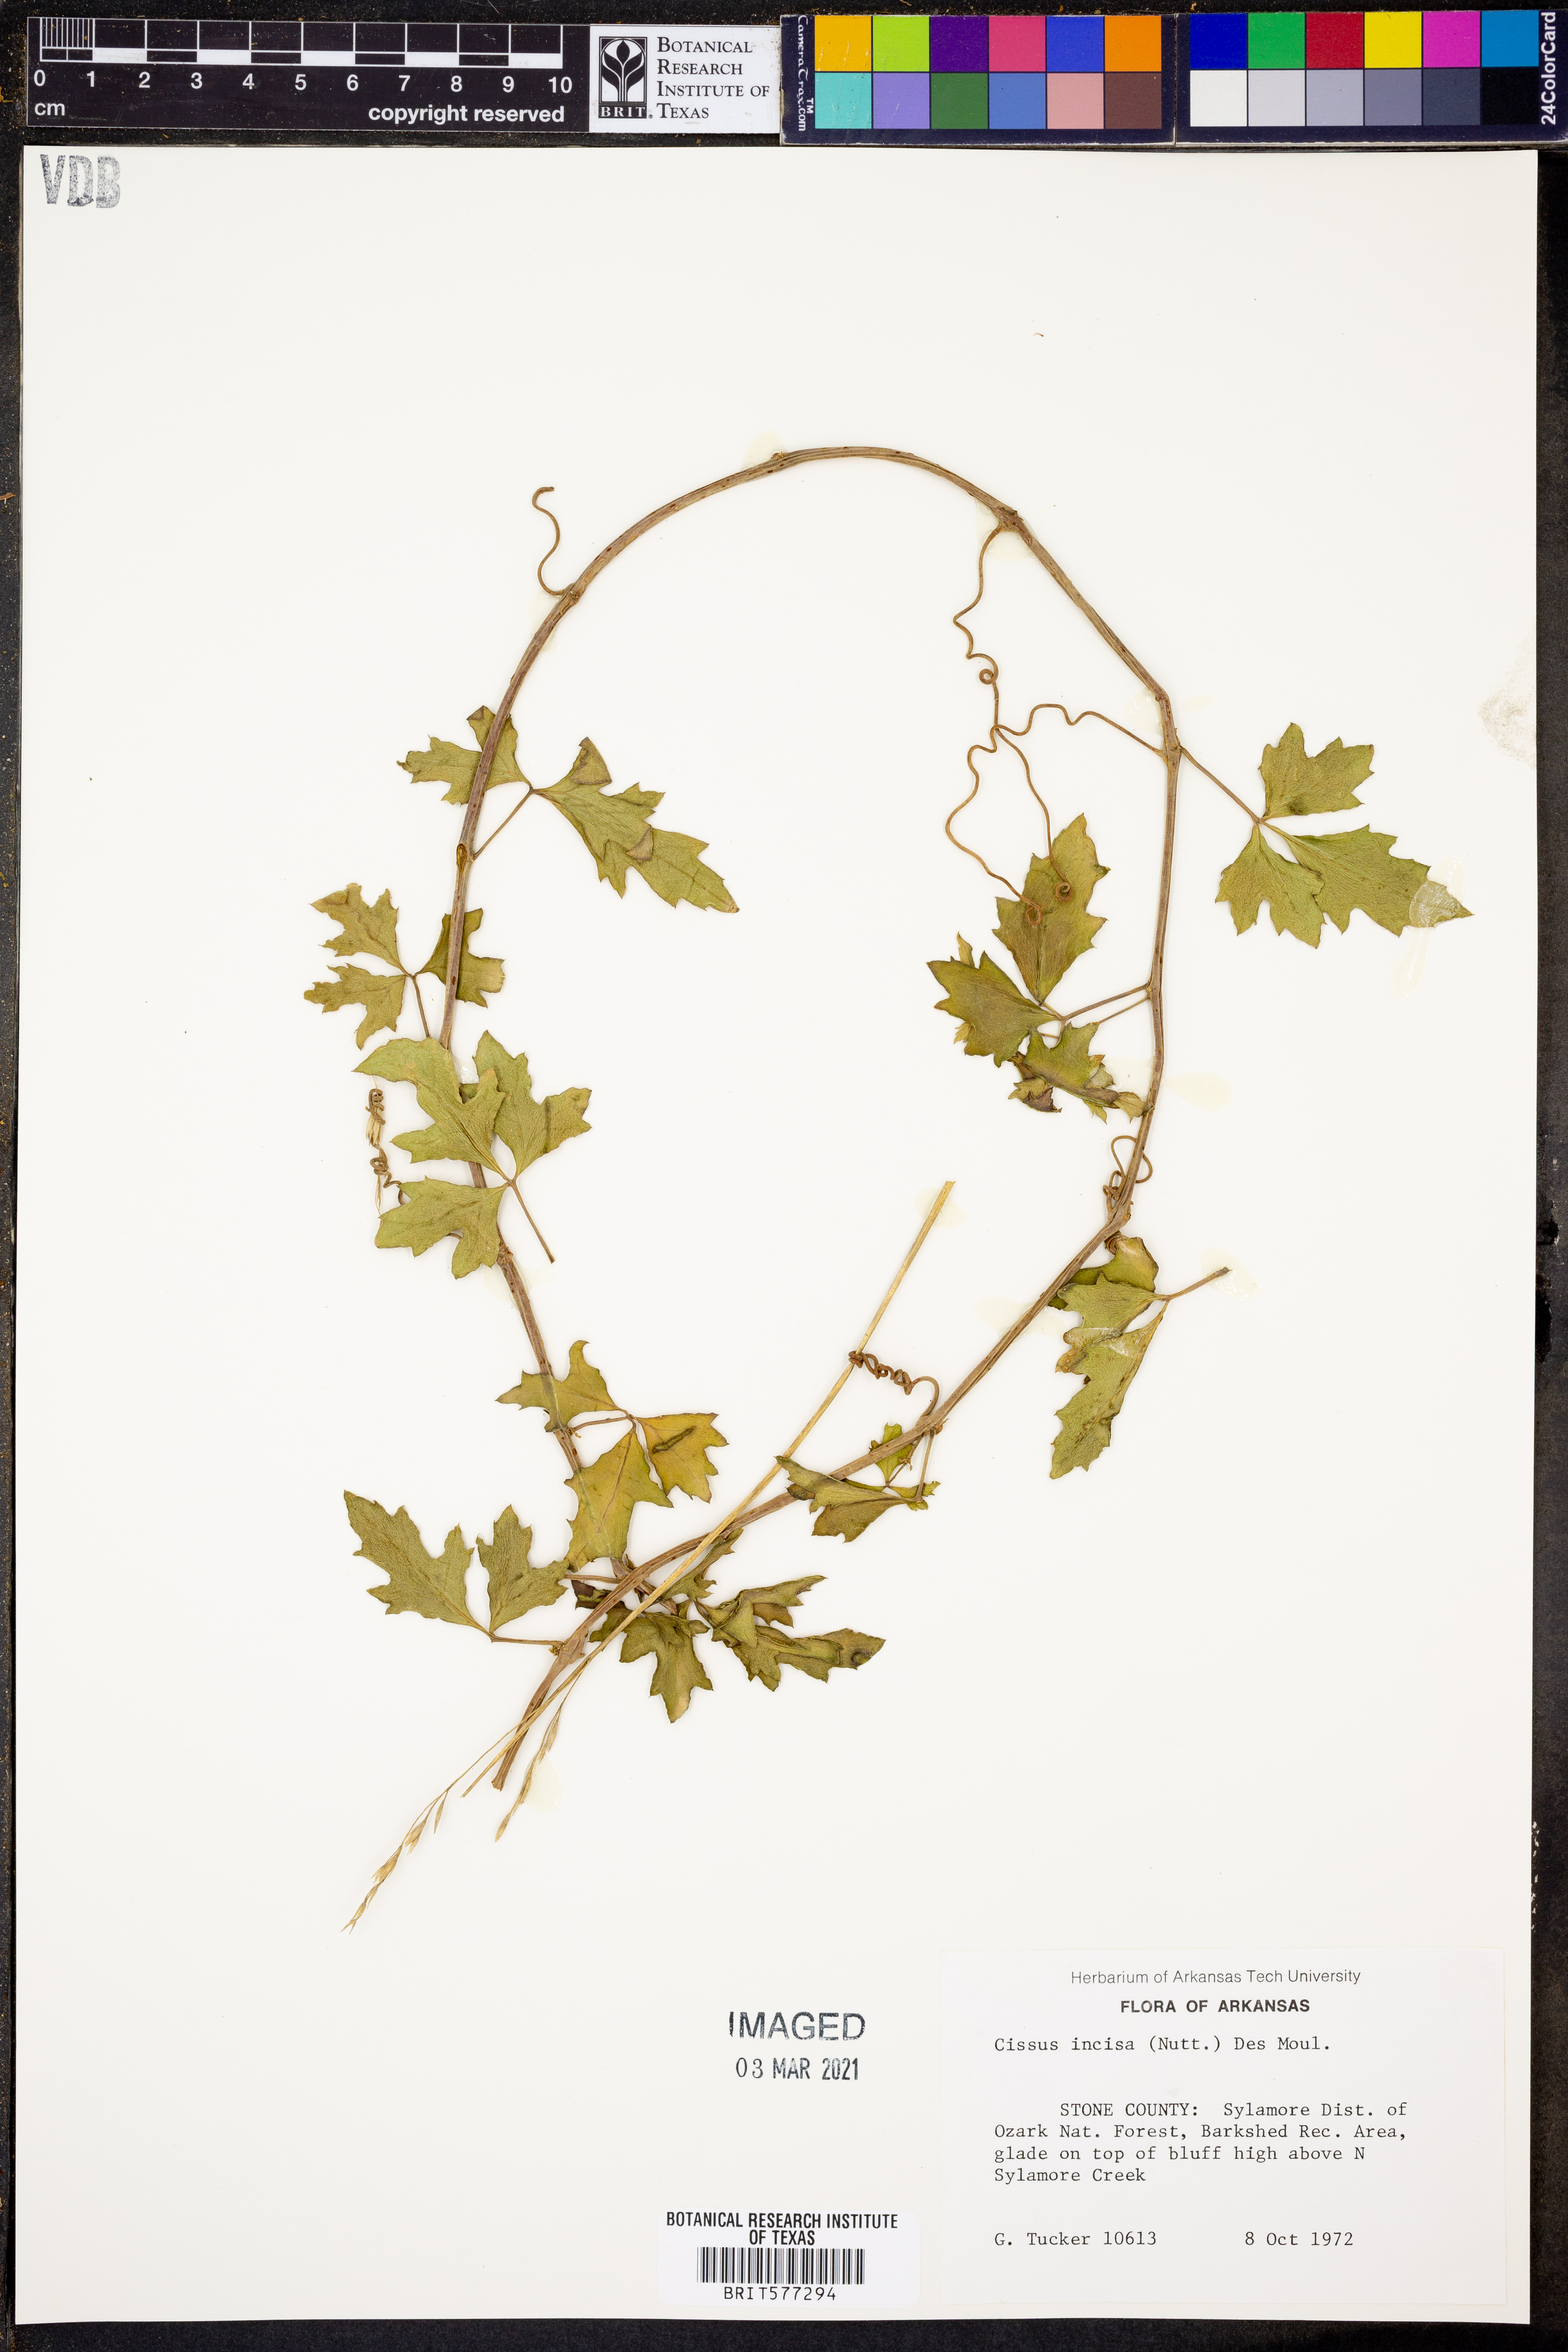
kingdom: Plantae
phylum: Tracheophyta
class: Magnoliopsida
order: Vitales
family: Vitaceae
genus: Cissus
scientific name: Cissus trifoliata
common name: Vine-sorrel
